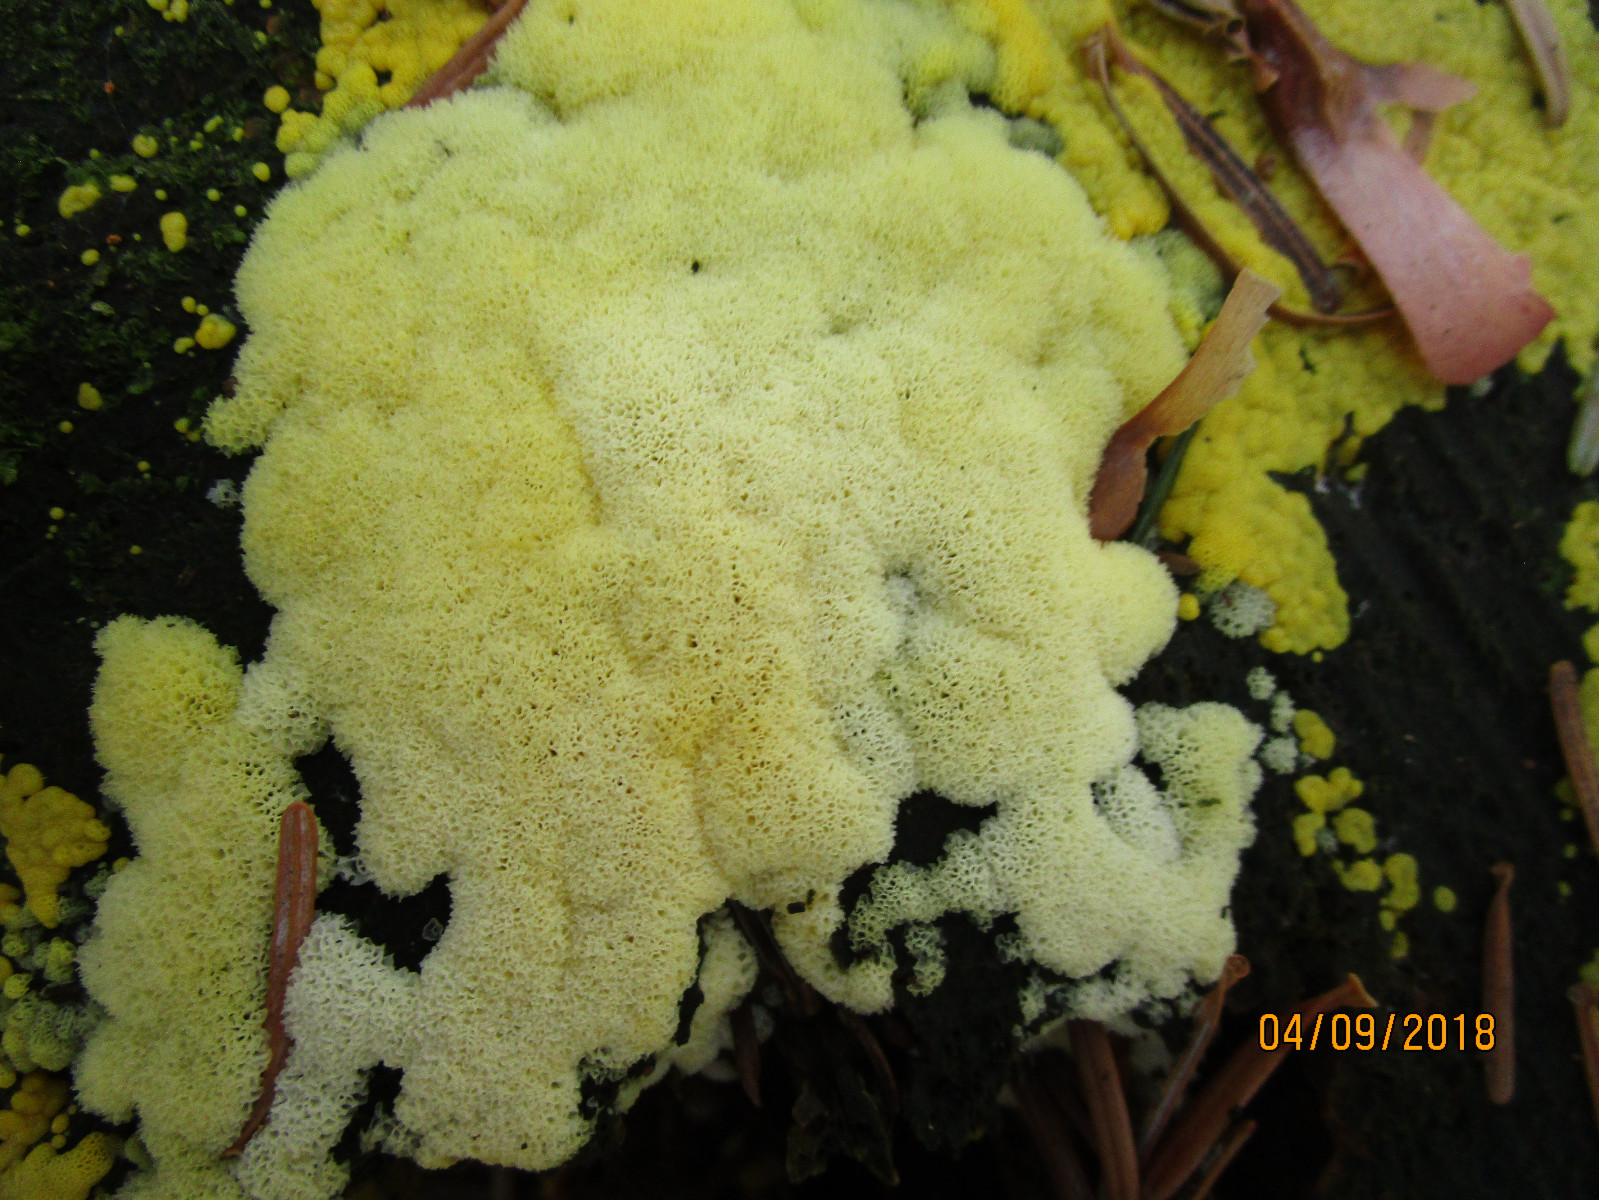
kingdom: Protozoa
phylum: Mycetozoa
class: Protosteliomycetes
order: Ceratiomyxales
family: Ceratiomyxaceae
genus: Ceratiomyxa
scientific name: Ceratiomyxa fruticulosa
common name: Honeycomb coral slime mold
